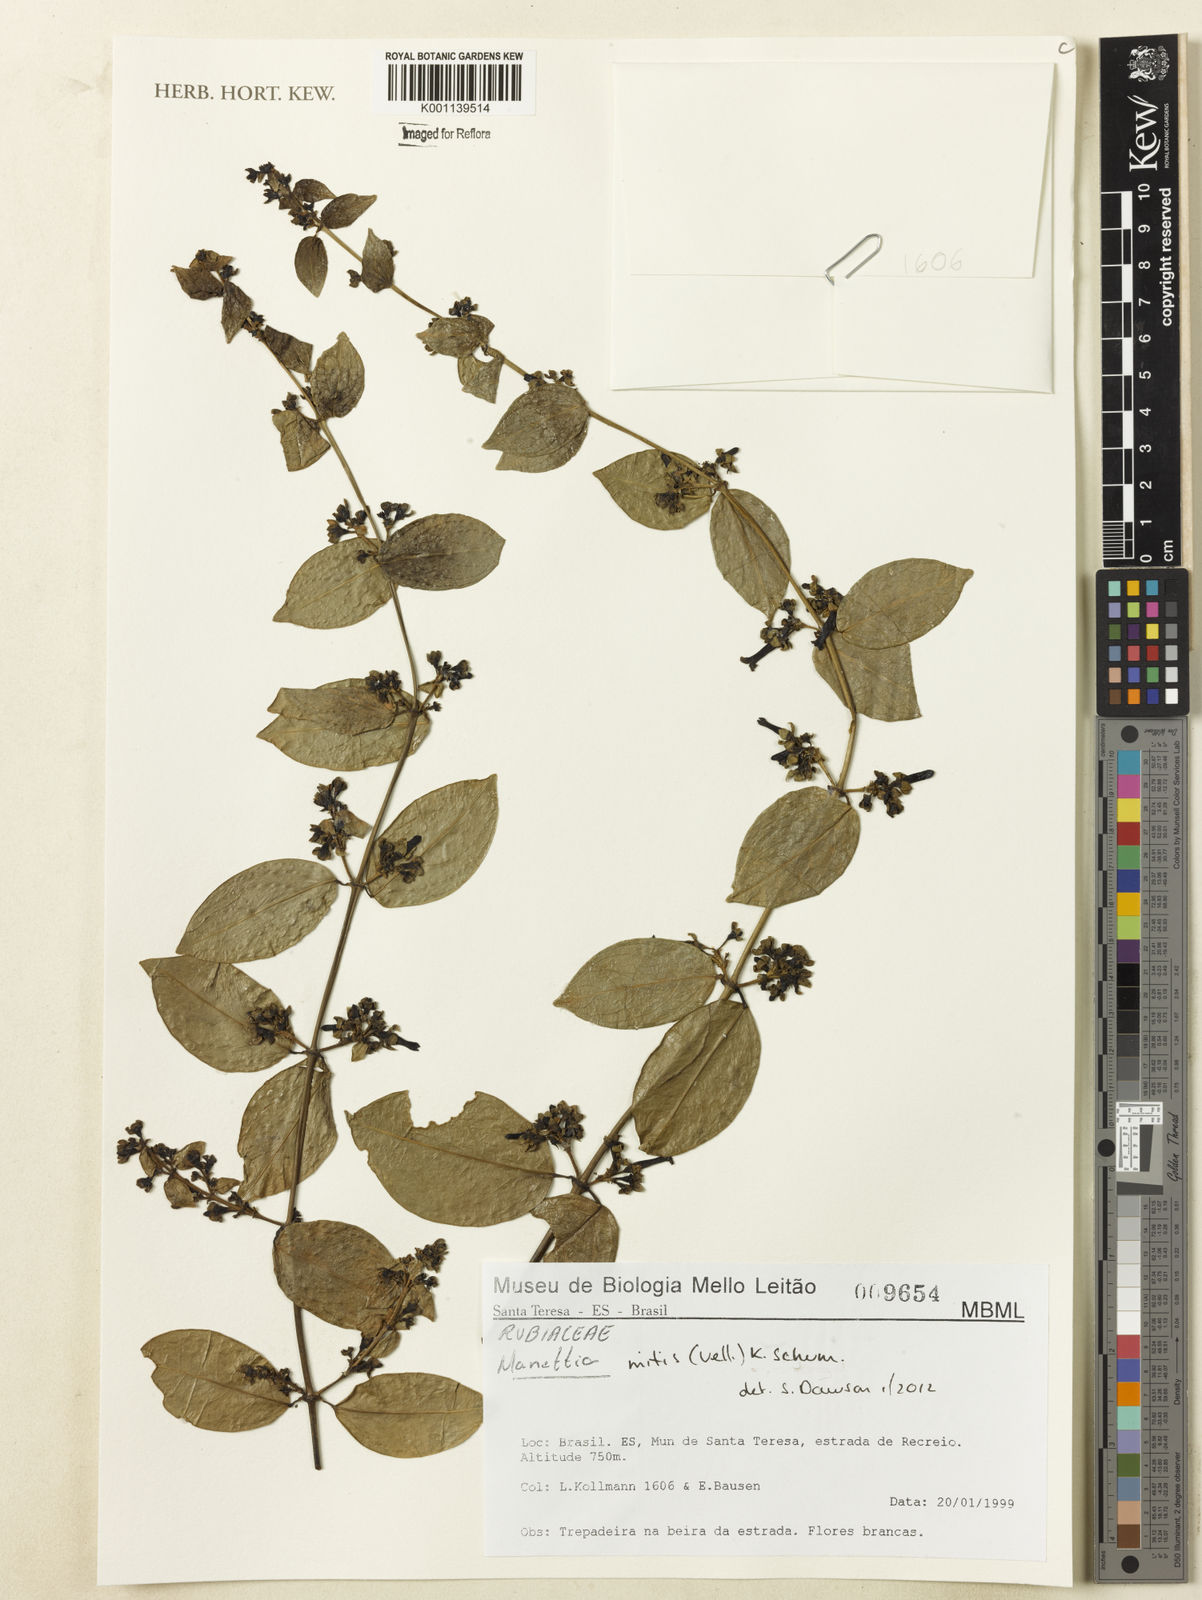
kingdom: Plantae
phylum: Tracheophyta
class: Magnoliopsida
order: Gentianales
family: Rubiaceae
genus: Manettia
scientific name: Manettia mitis
